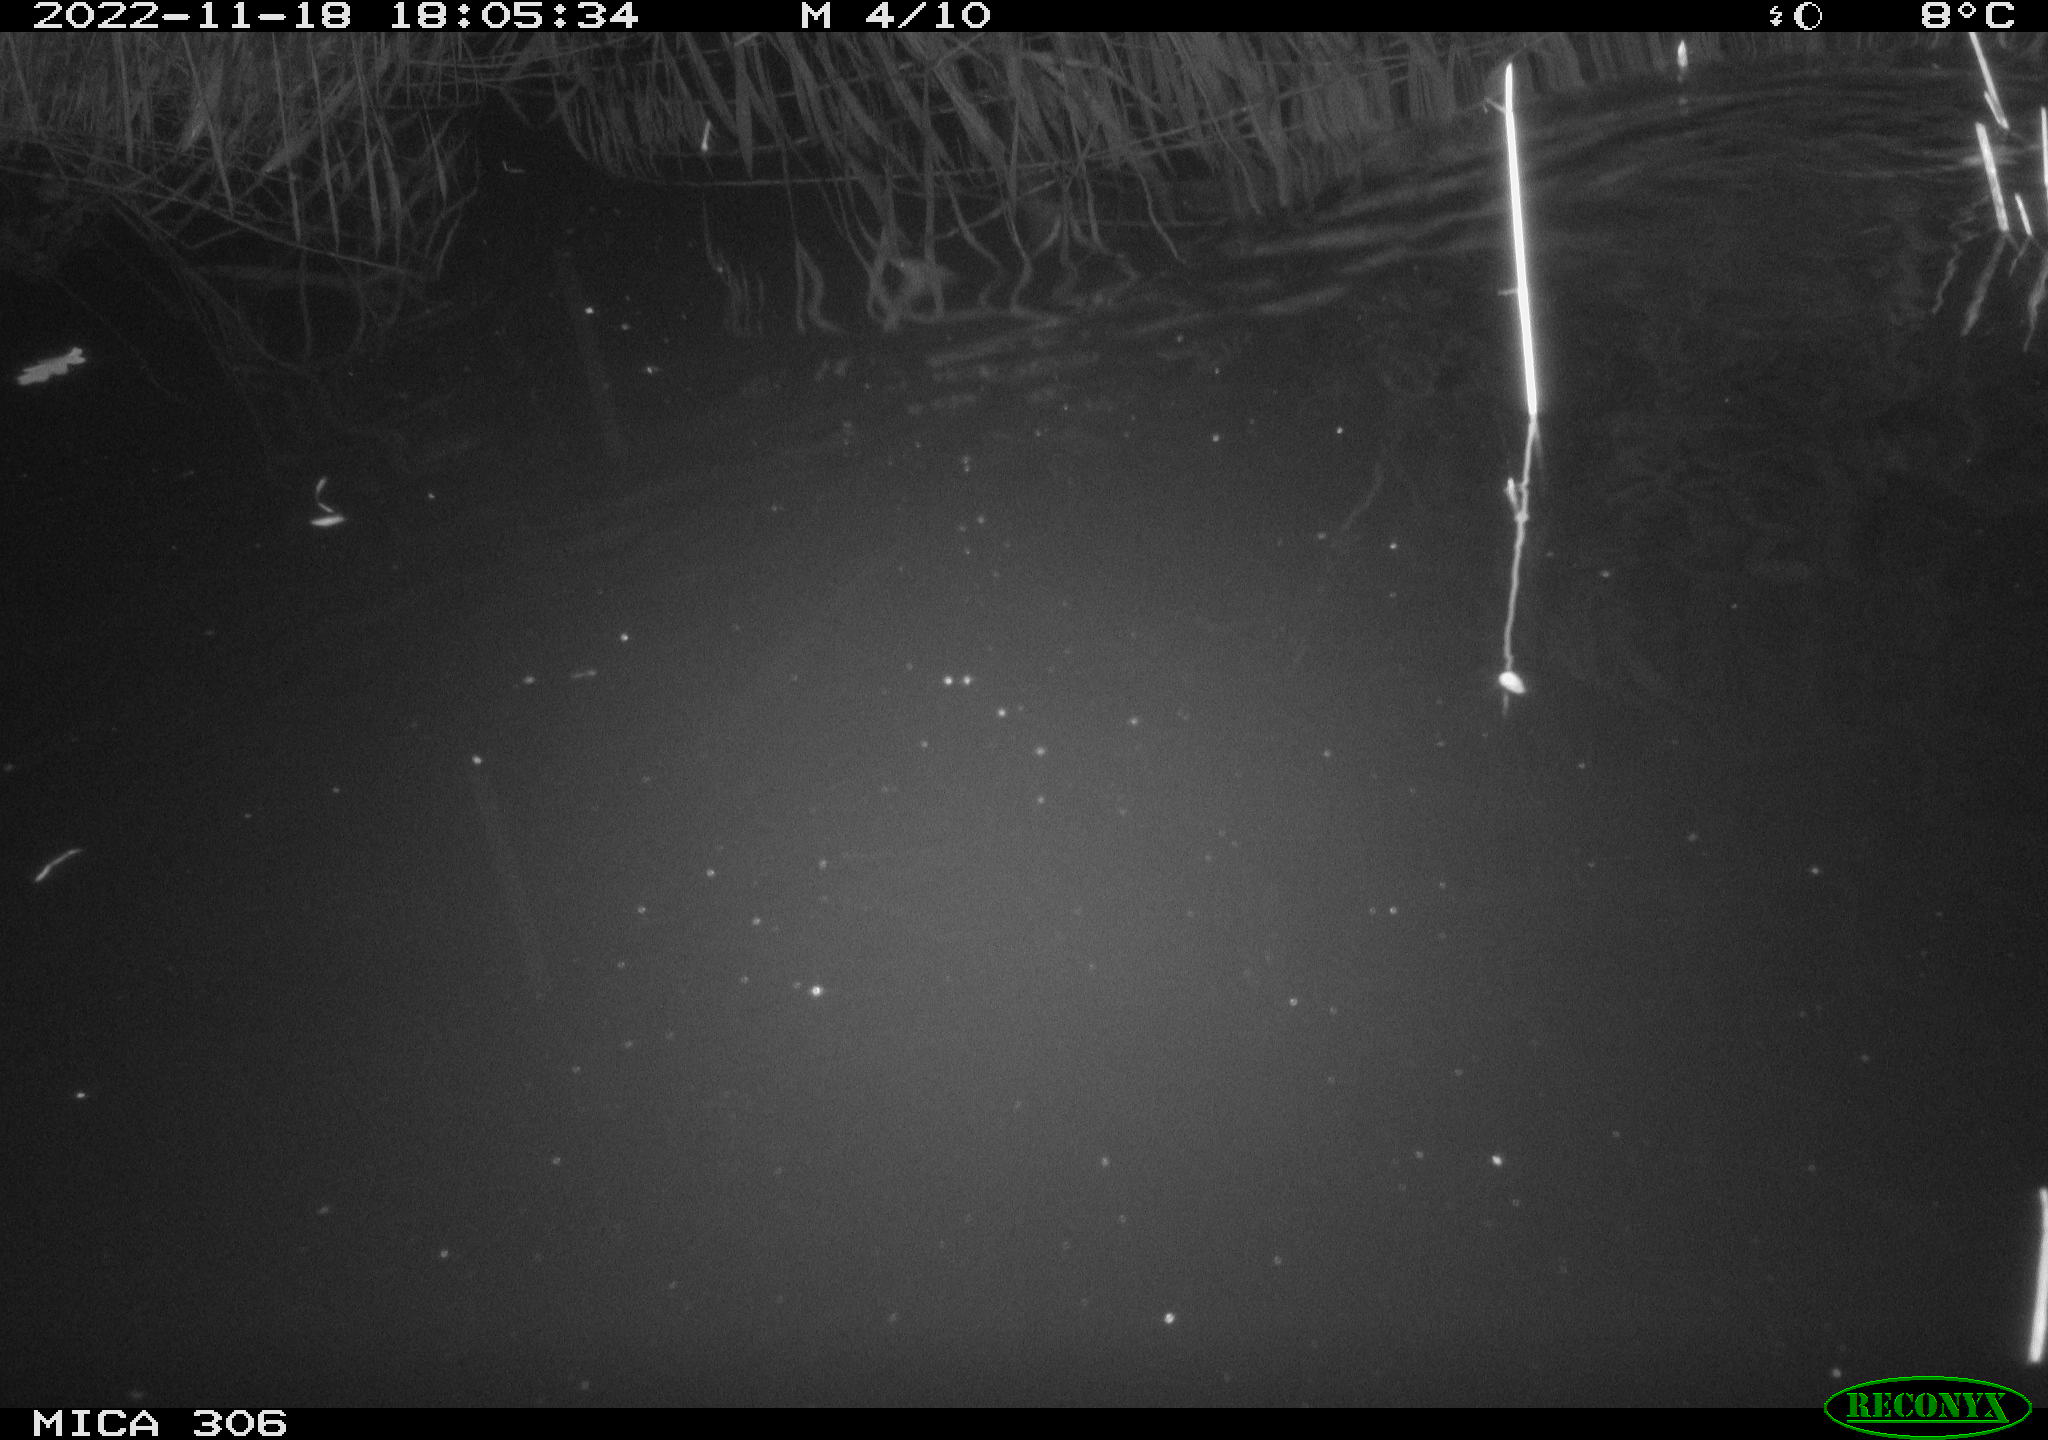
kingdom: Animalia
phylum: Chordata
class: Mammalia
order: Rodentia
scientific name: Rodentia
